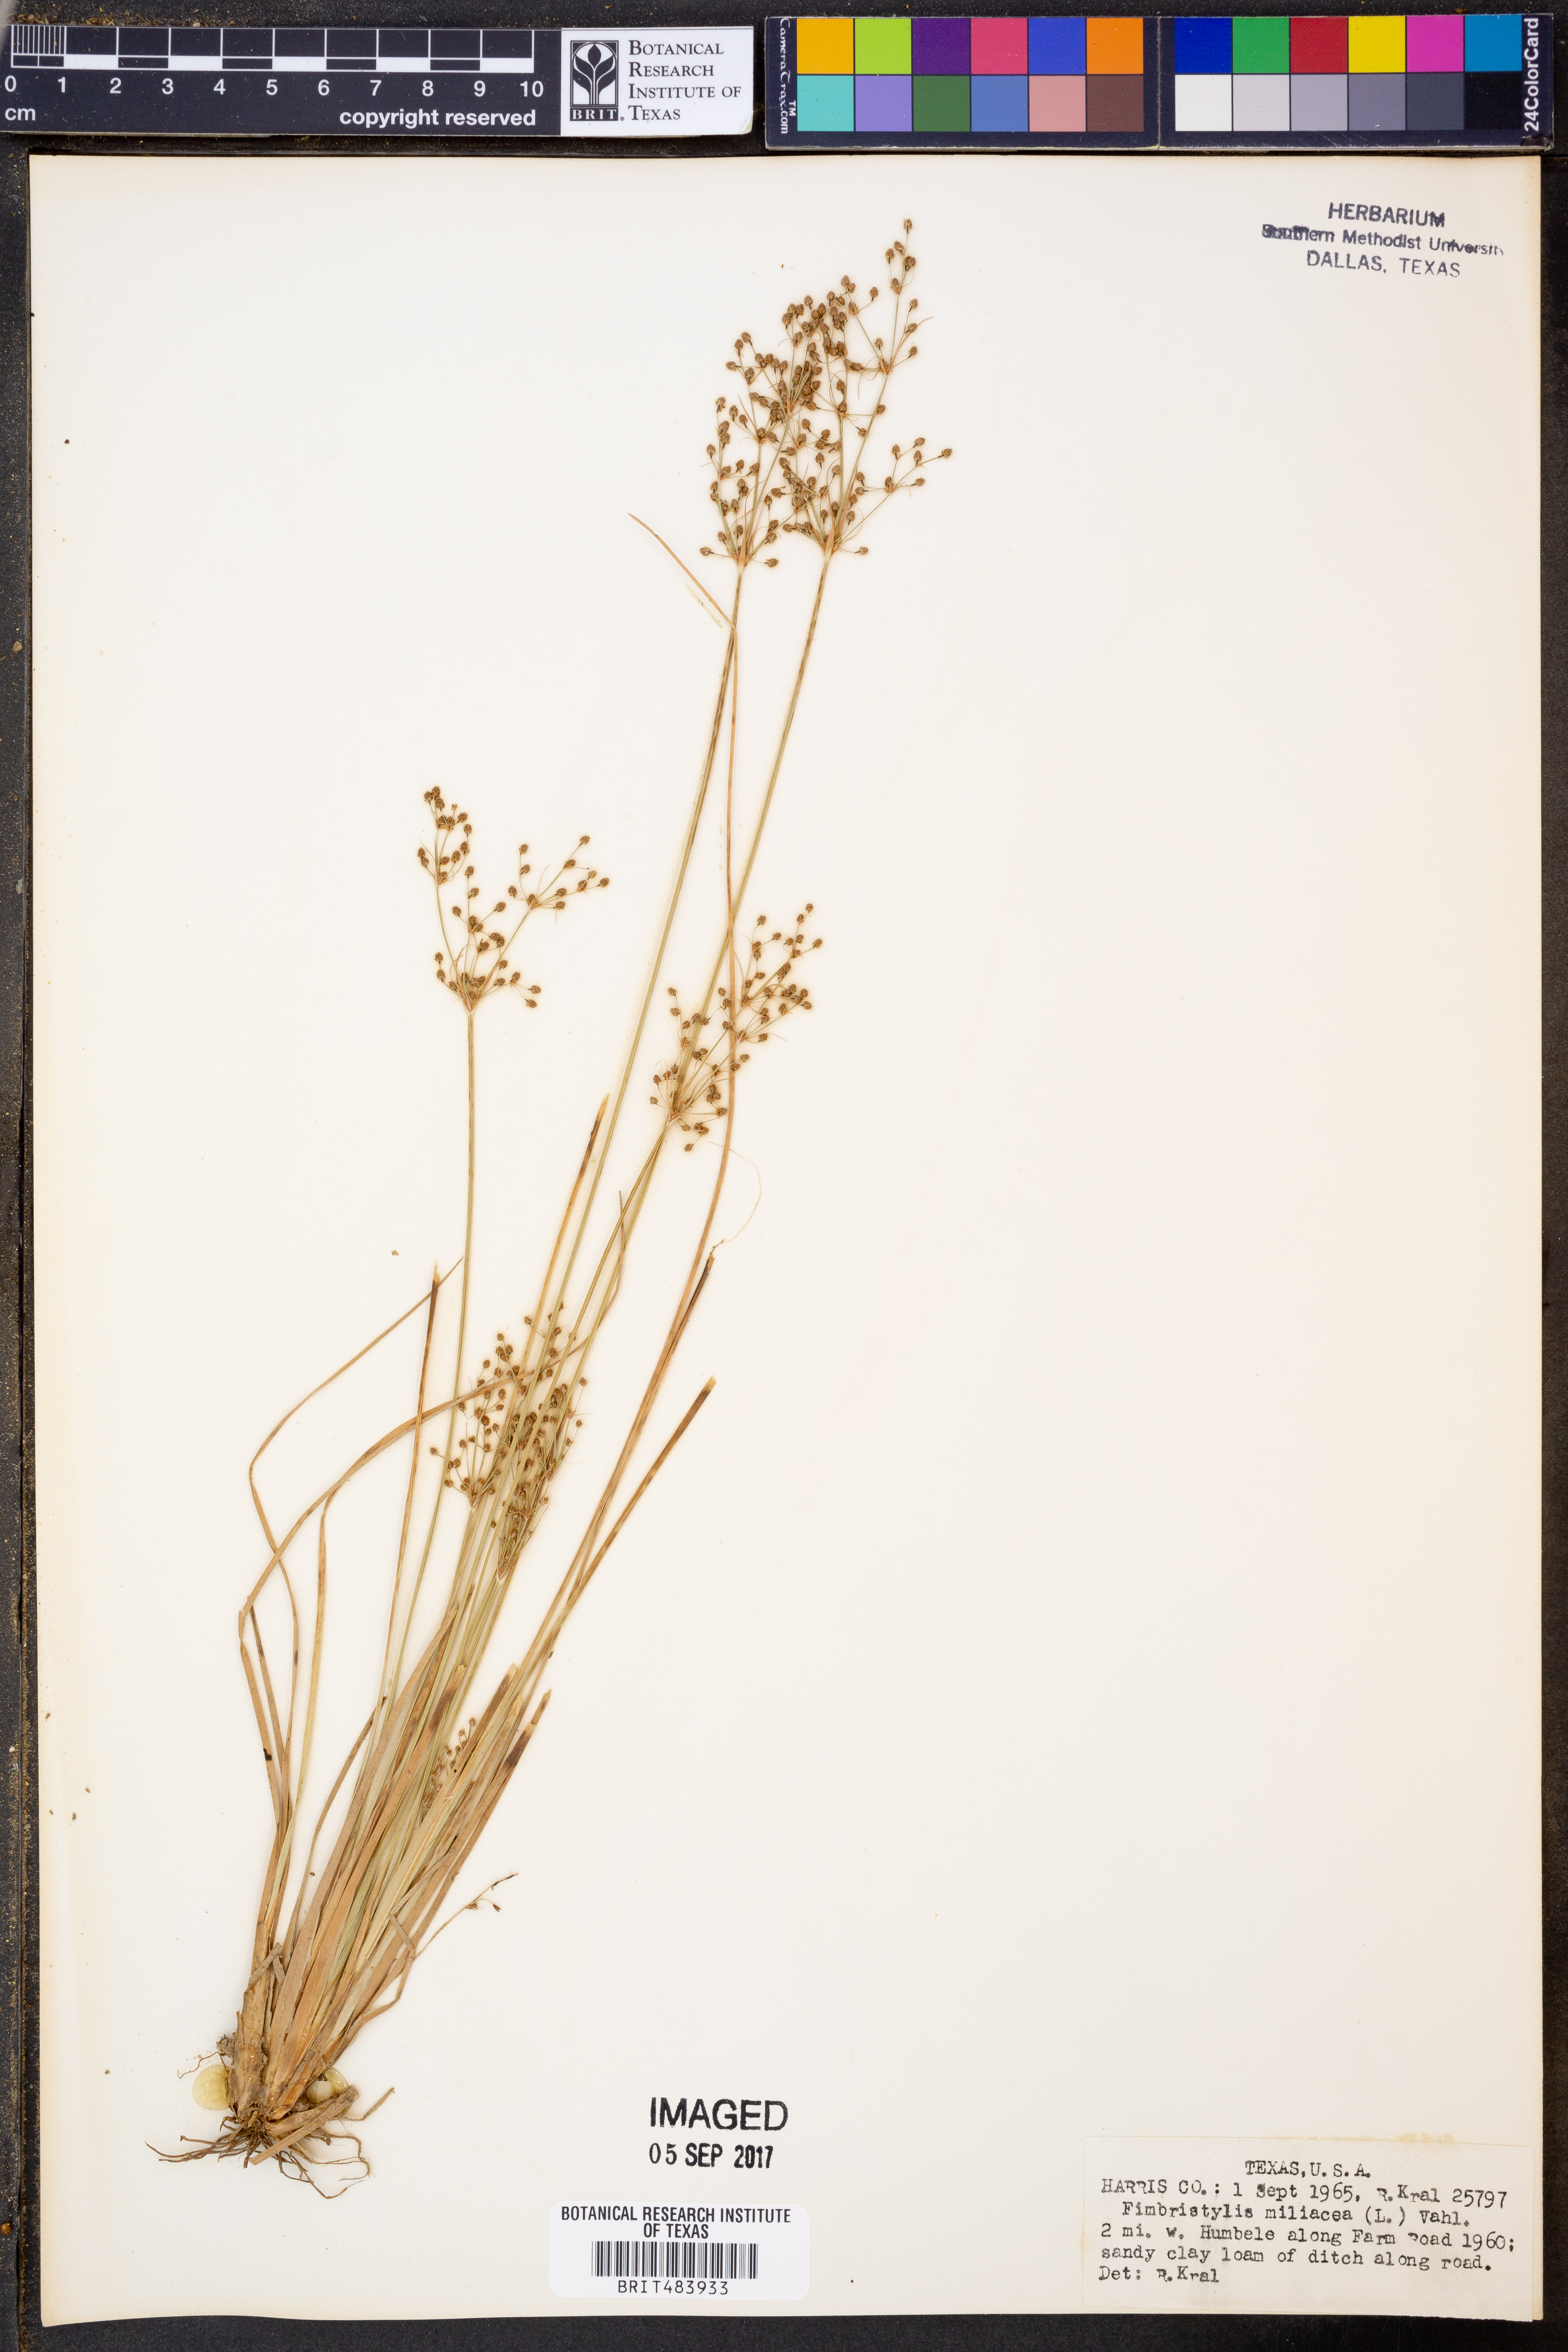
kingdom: Plantae
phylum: Tracheophyta
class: Liliopsida
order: Poales
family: Cyperaceae
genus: Fimbristylis
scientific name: Fimbristylis quinquangularis
